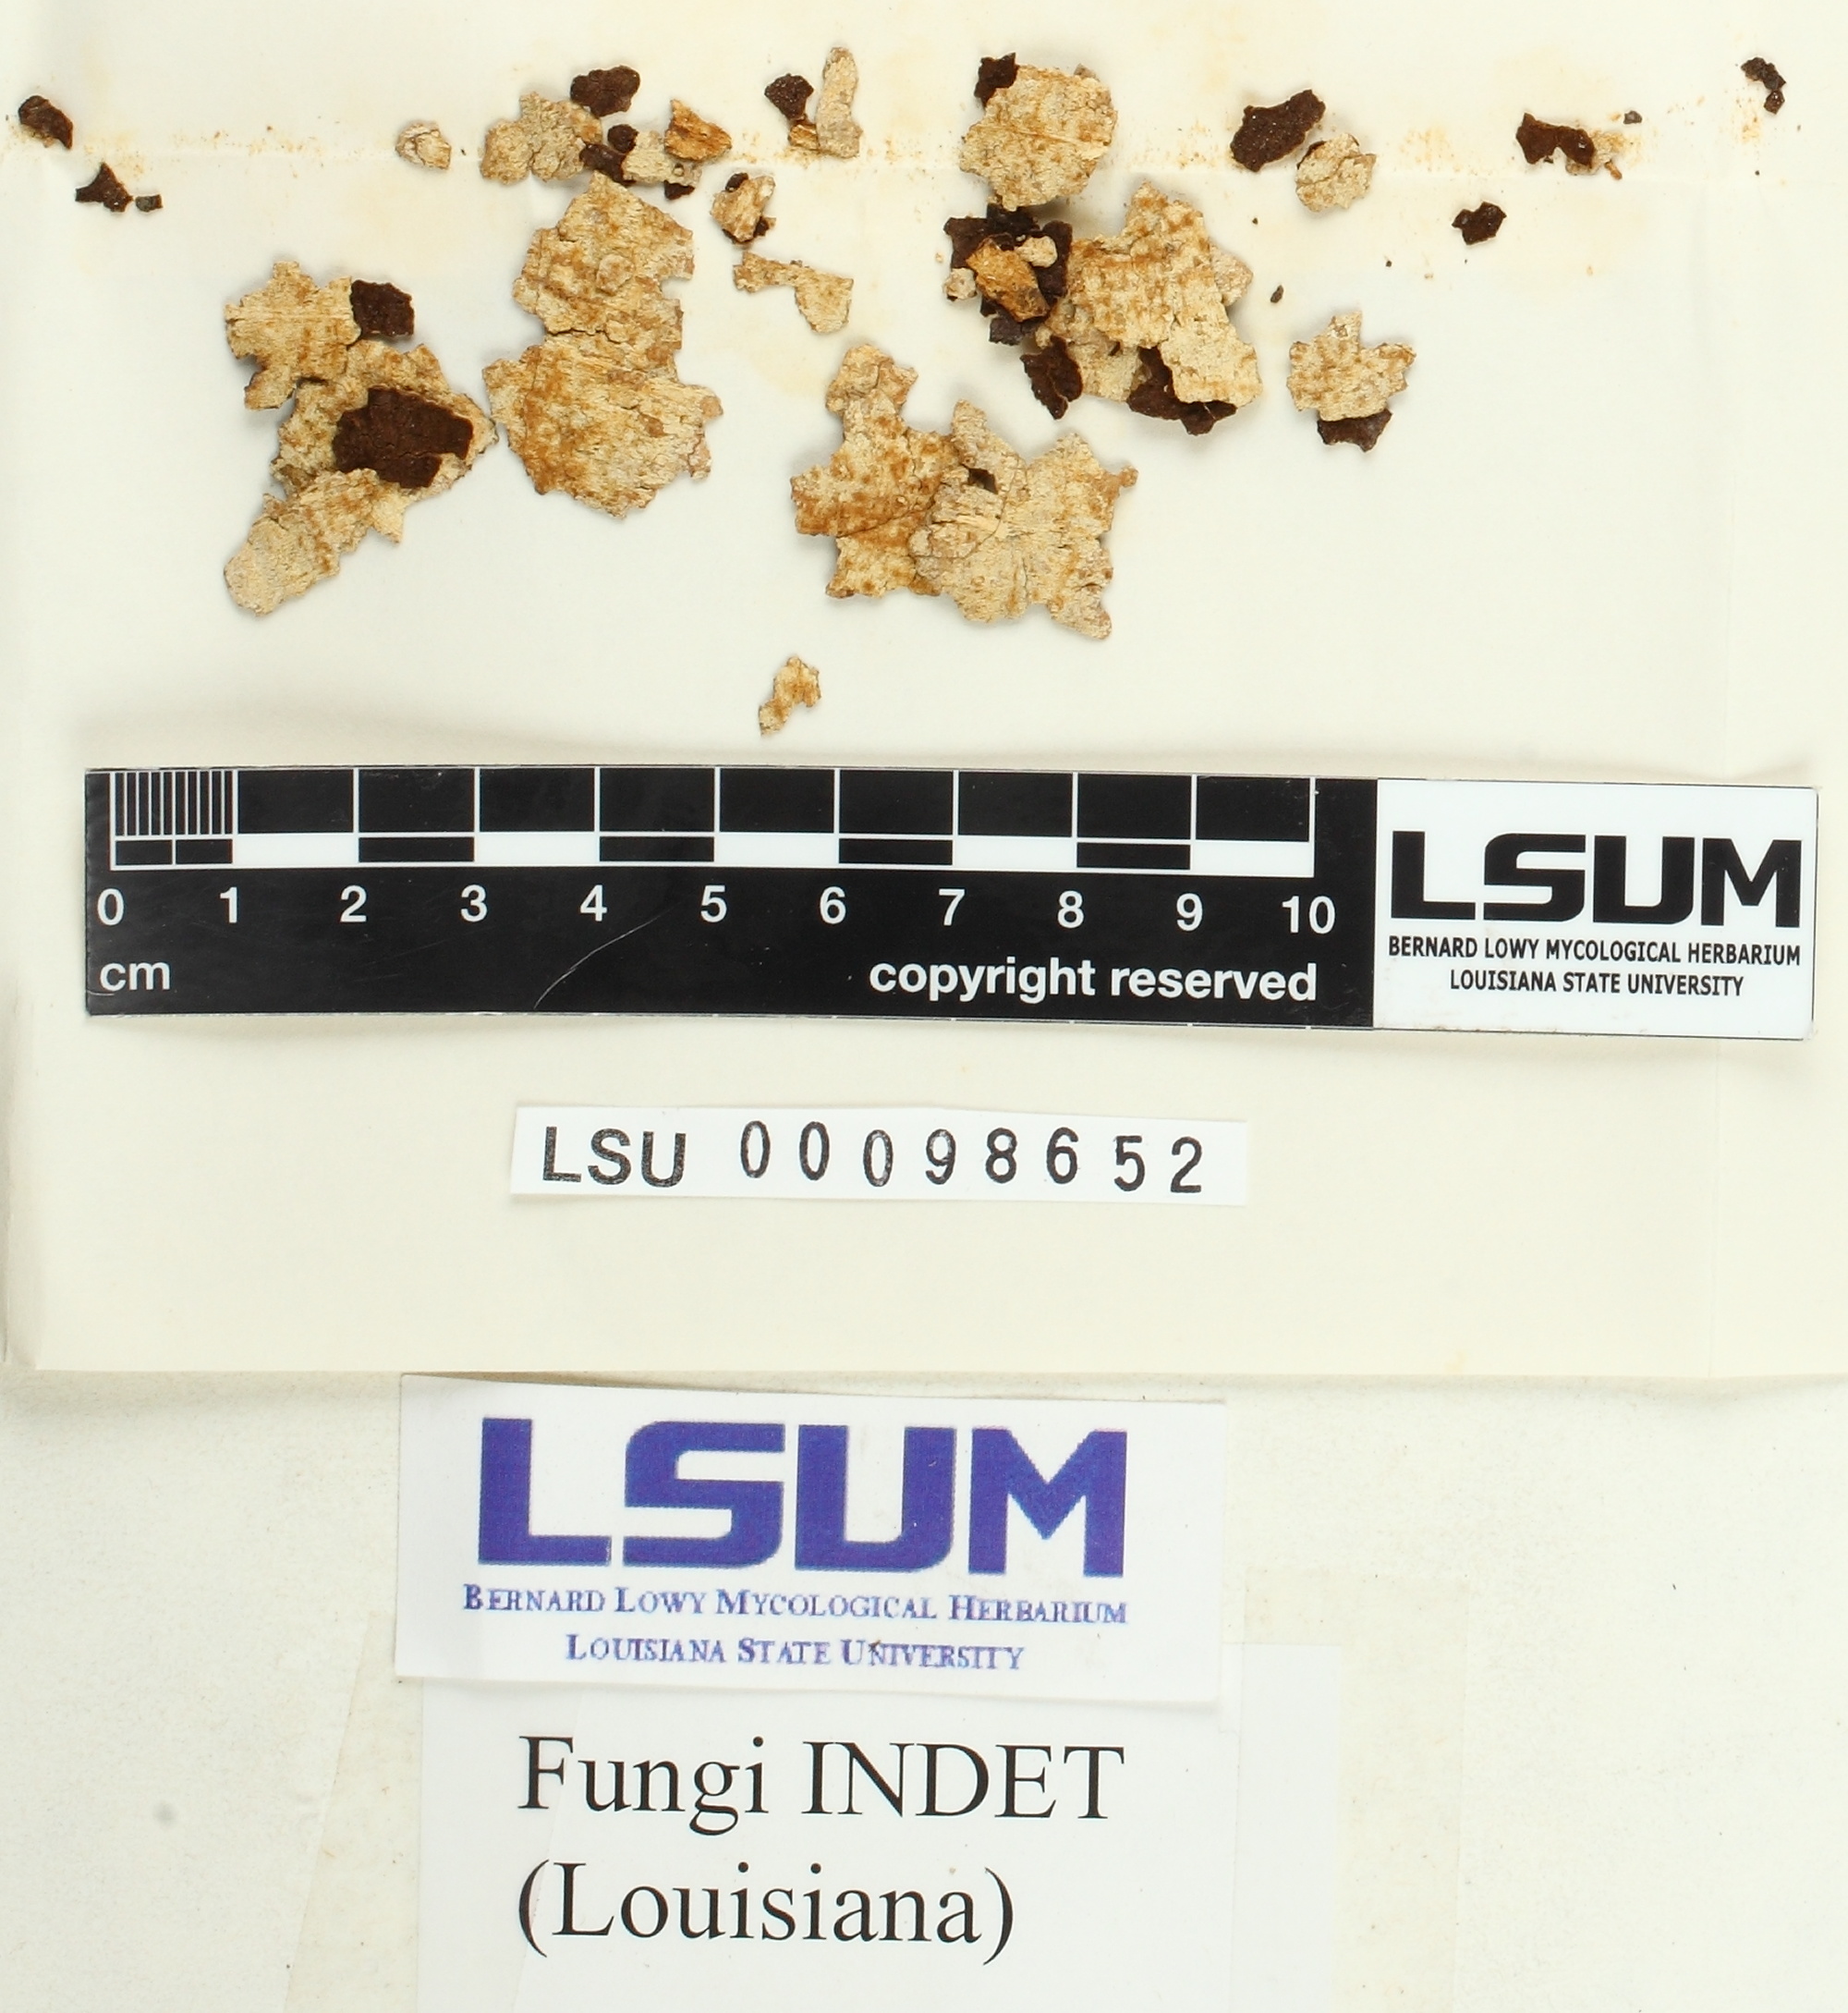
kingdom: Fungi
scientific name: Fungi
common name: Fungi
